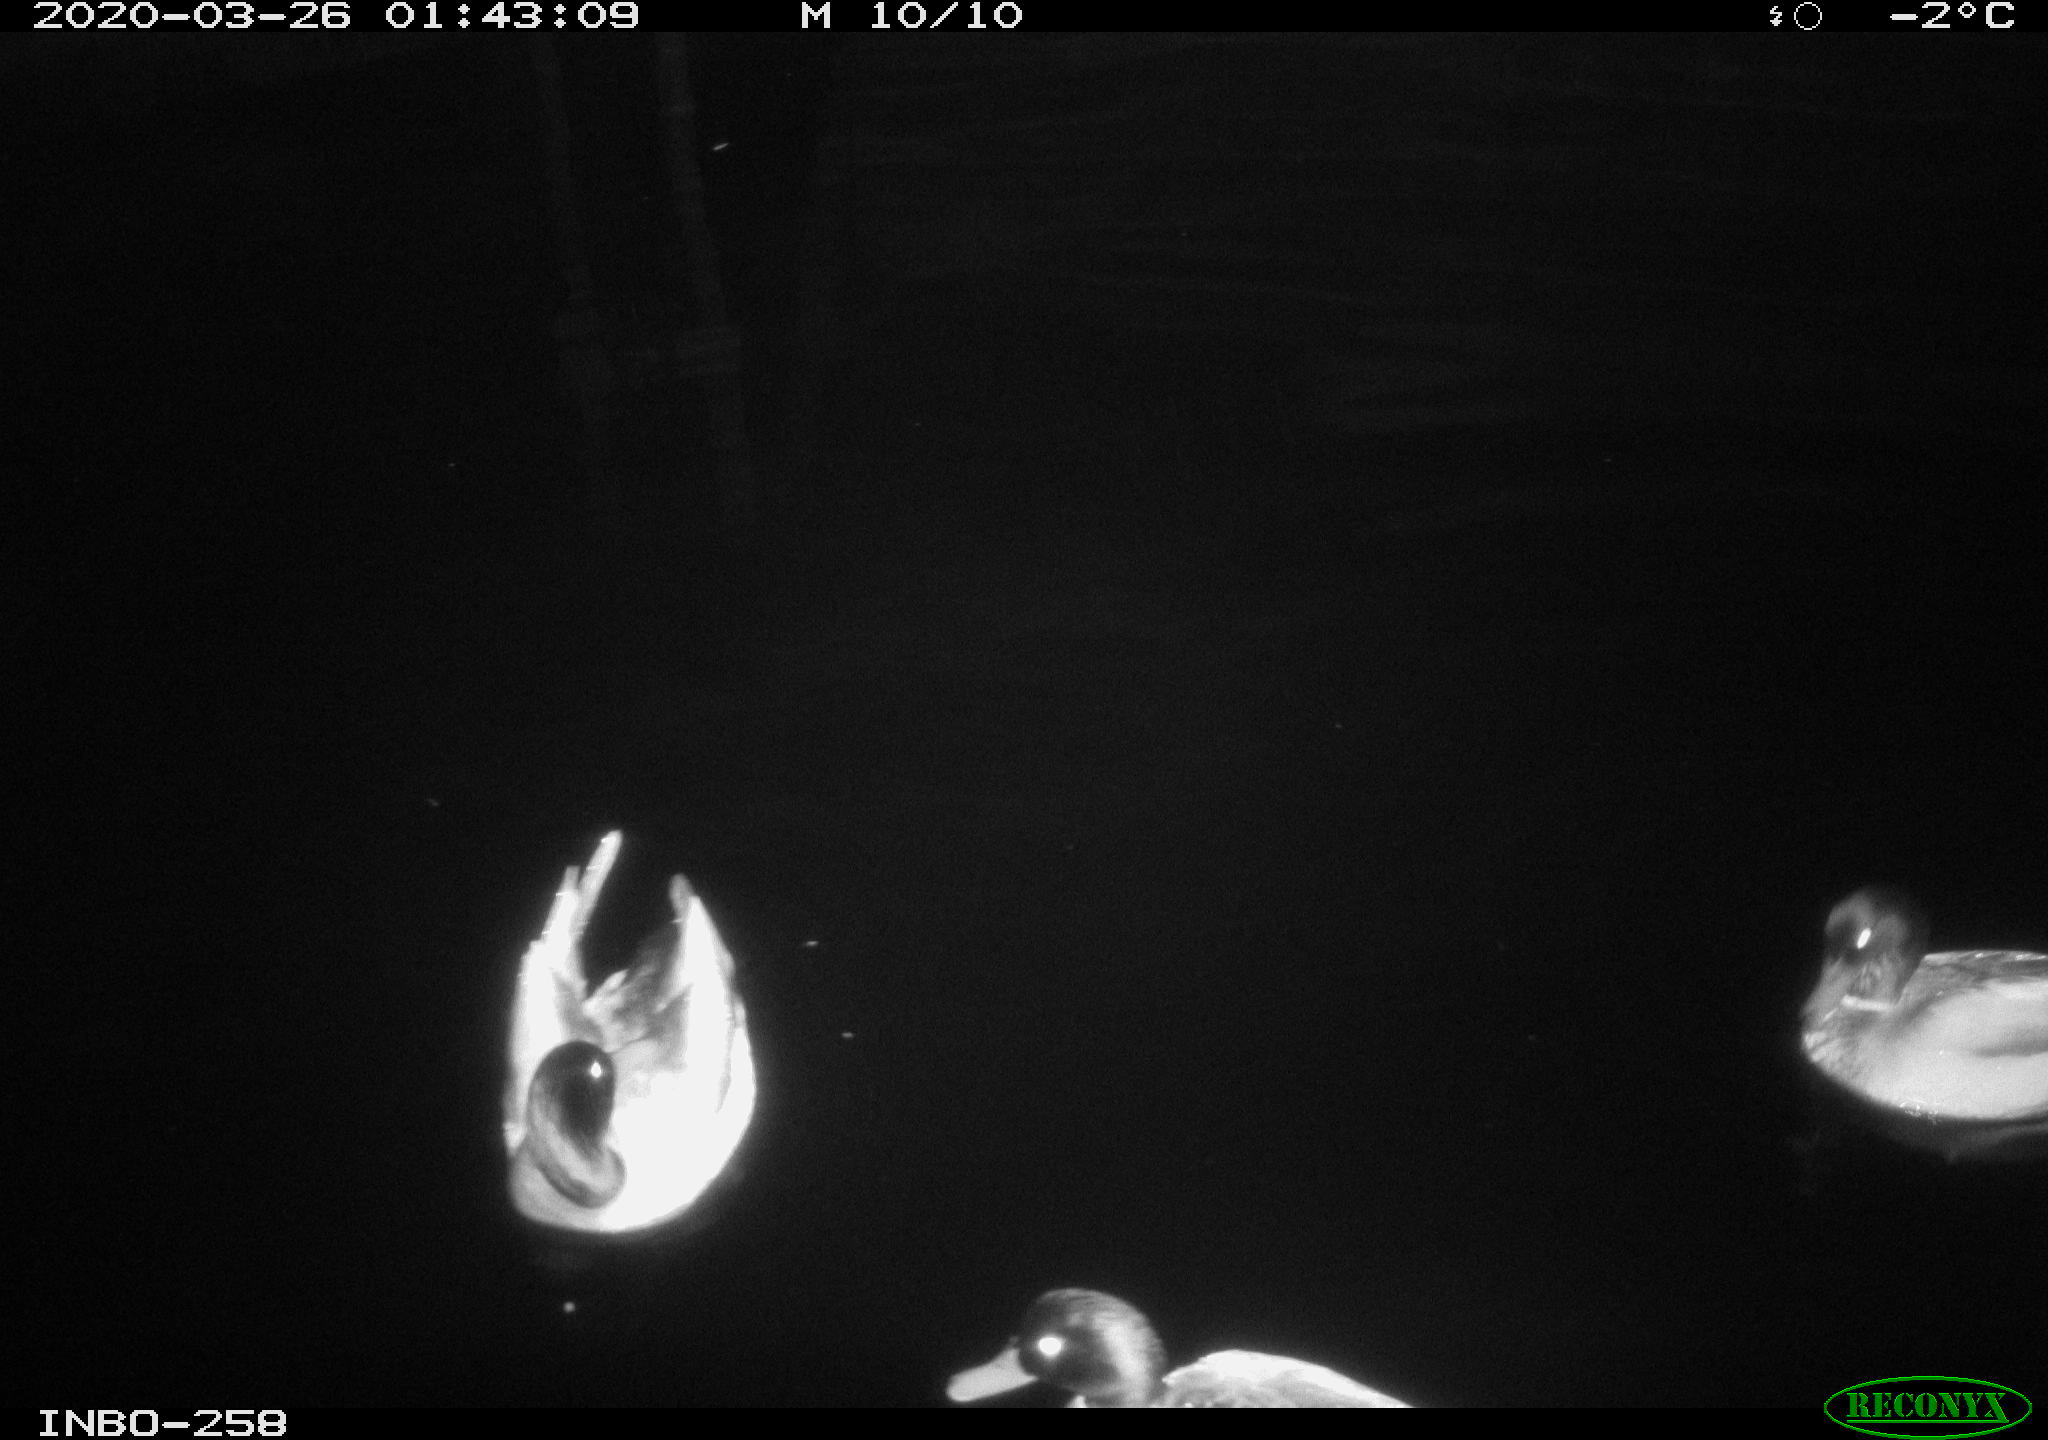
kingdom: Animalia
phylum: Chordata
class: Aves
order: Anseriformes
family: Anatidae
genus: Anas
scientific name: Anas platyrhynchos
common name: Mallard
